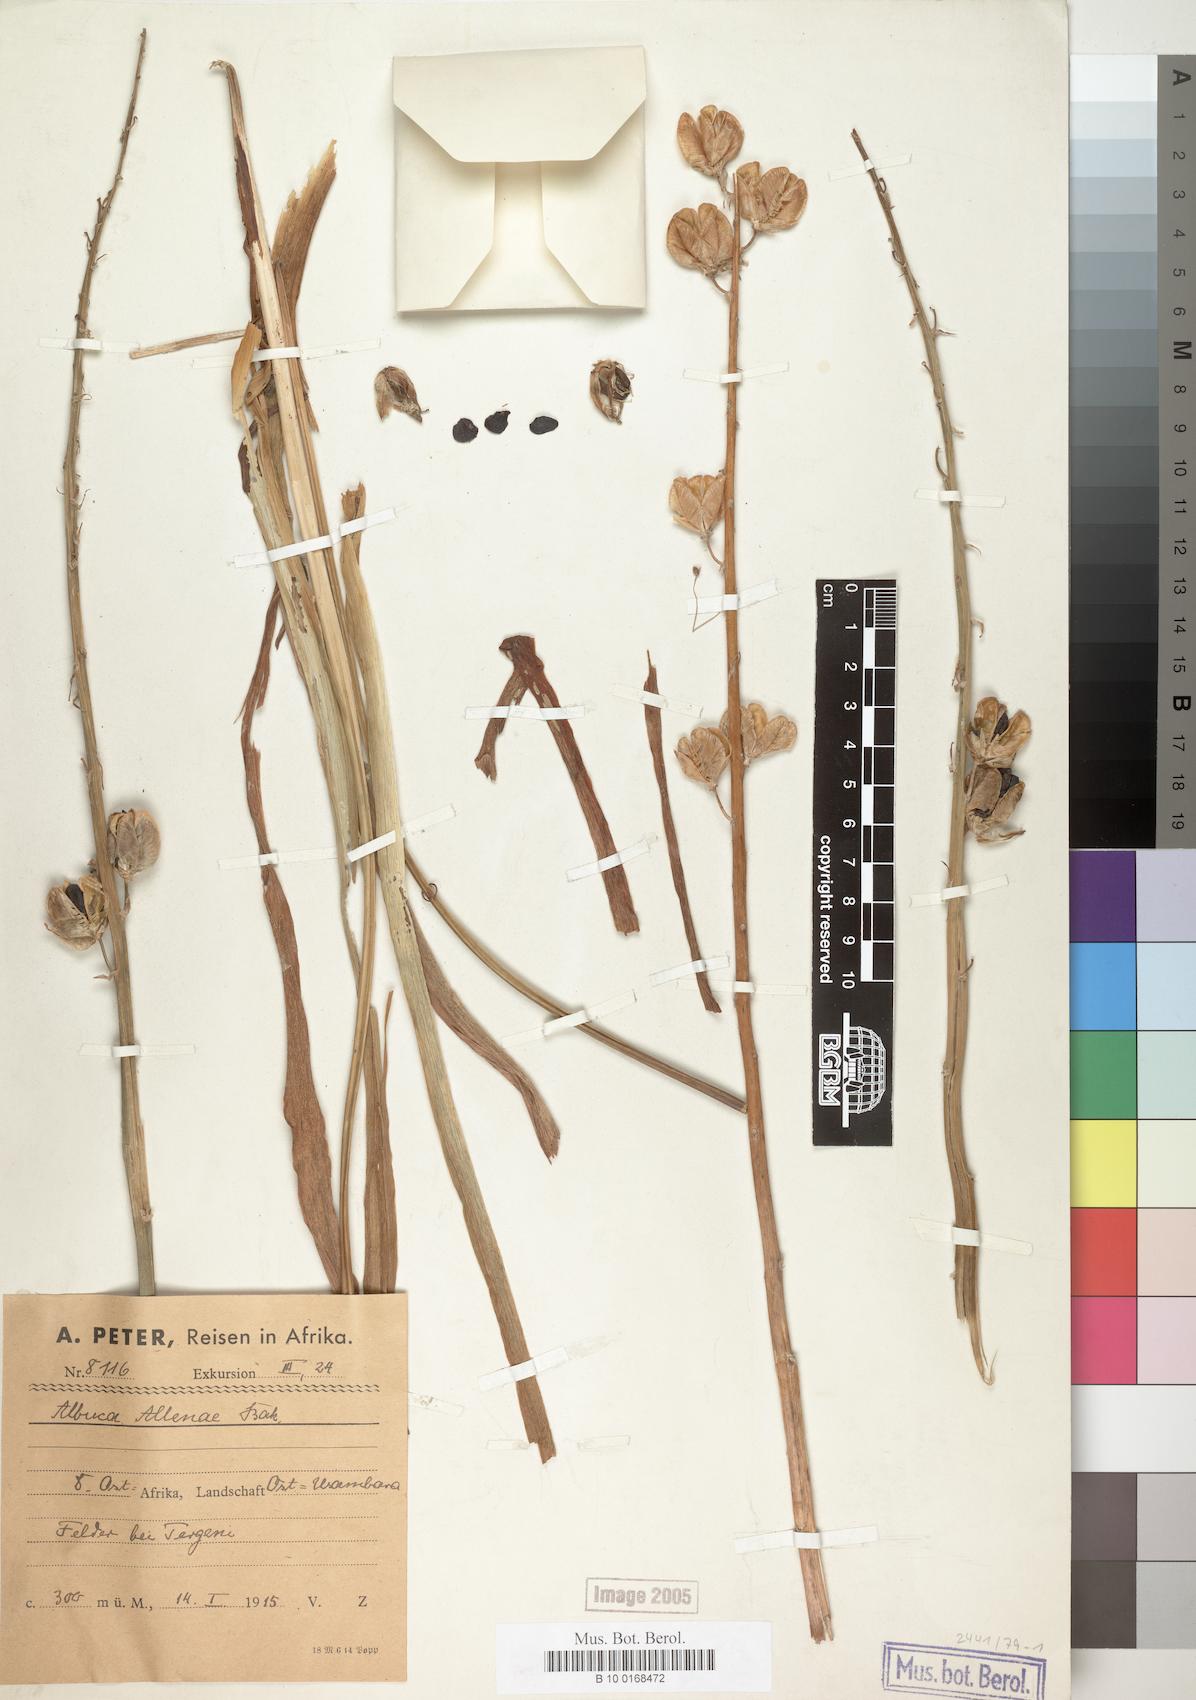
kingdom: Plantae
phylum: Tracheophyta
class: Liliopsida
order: Asparagales
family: Asparagaceae
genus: Albuca
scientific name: Albuca abyssinica
